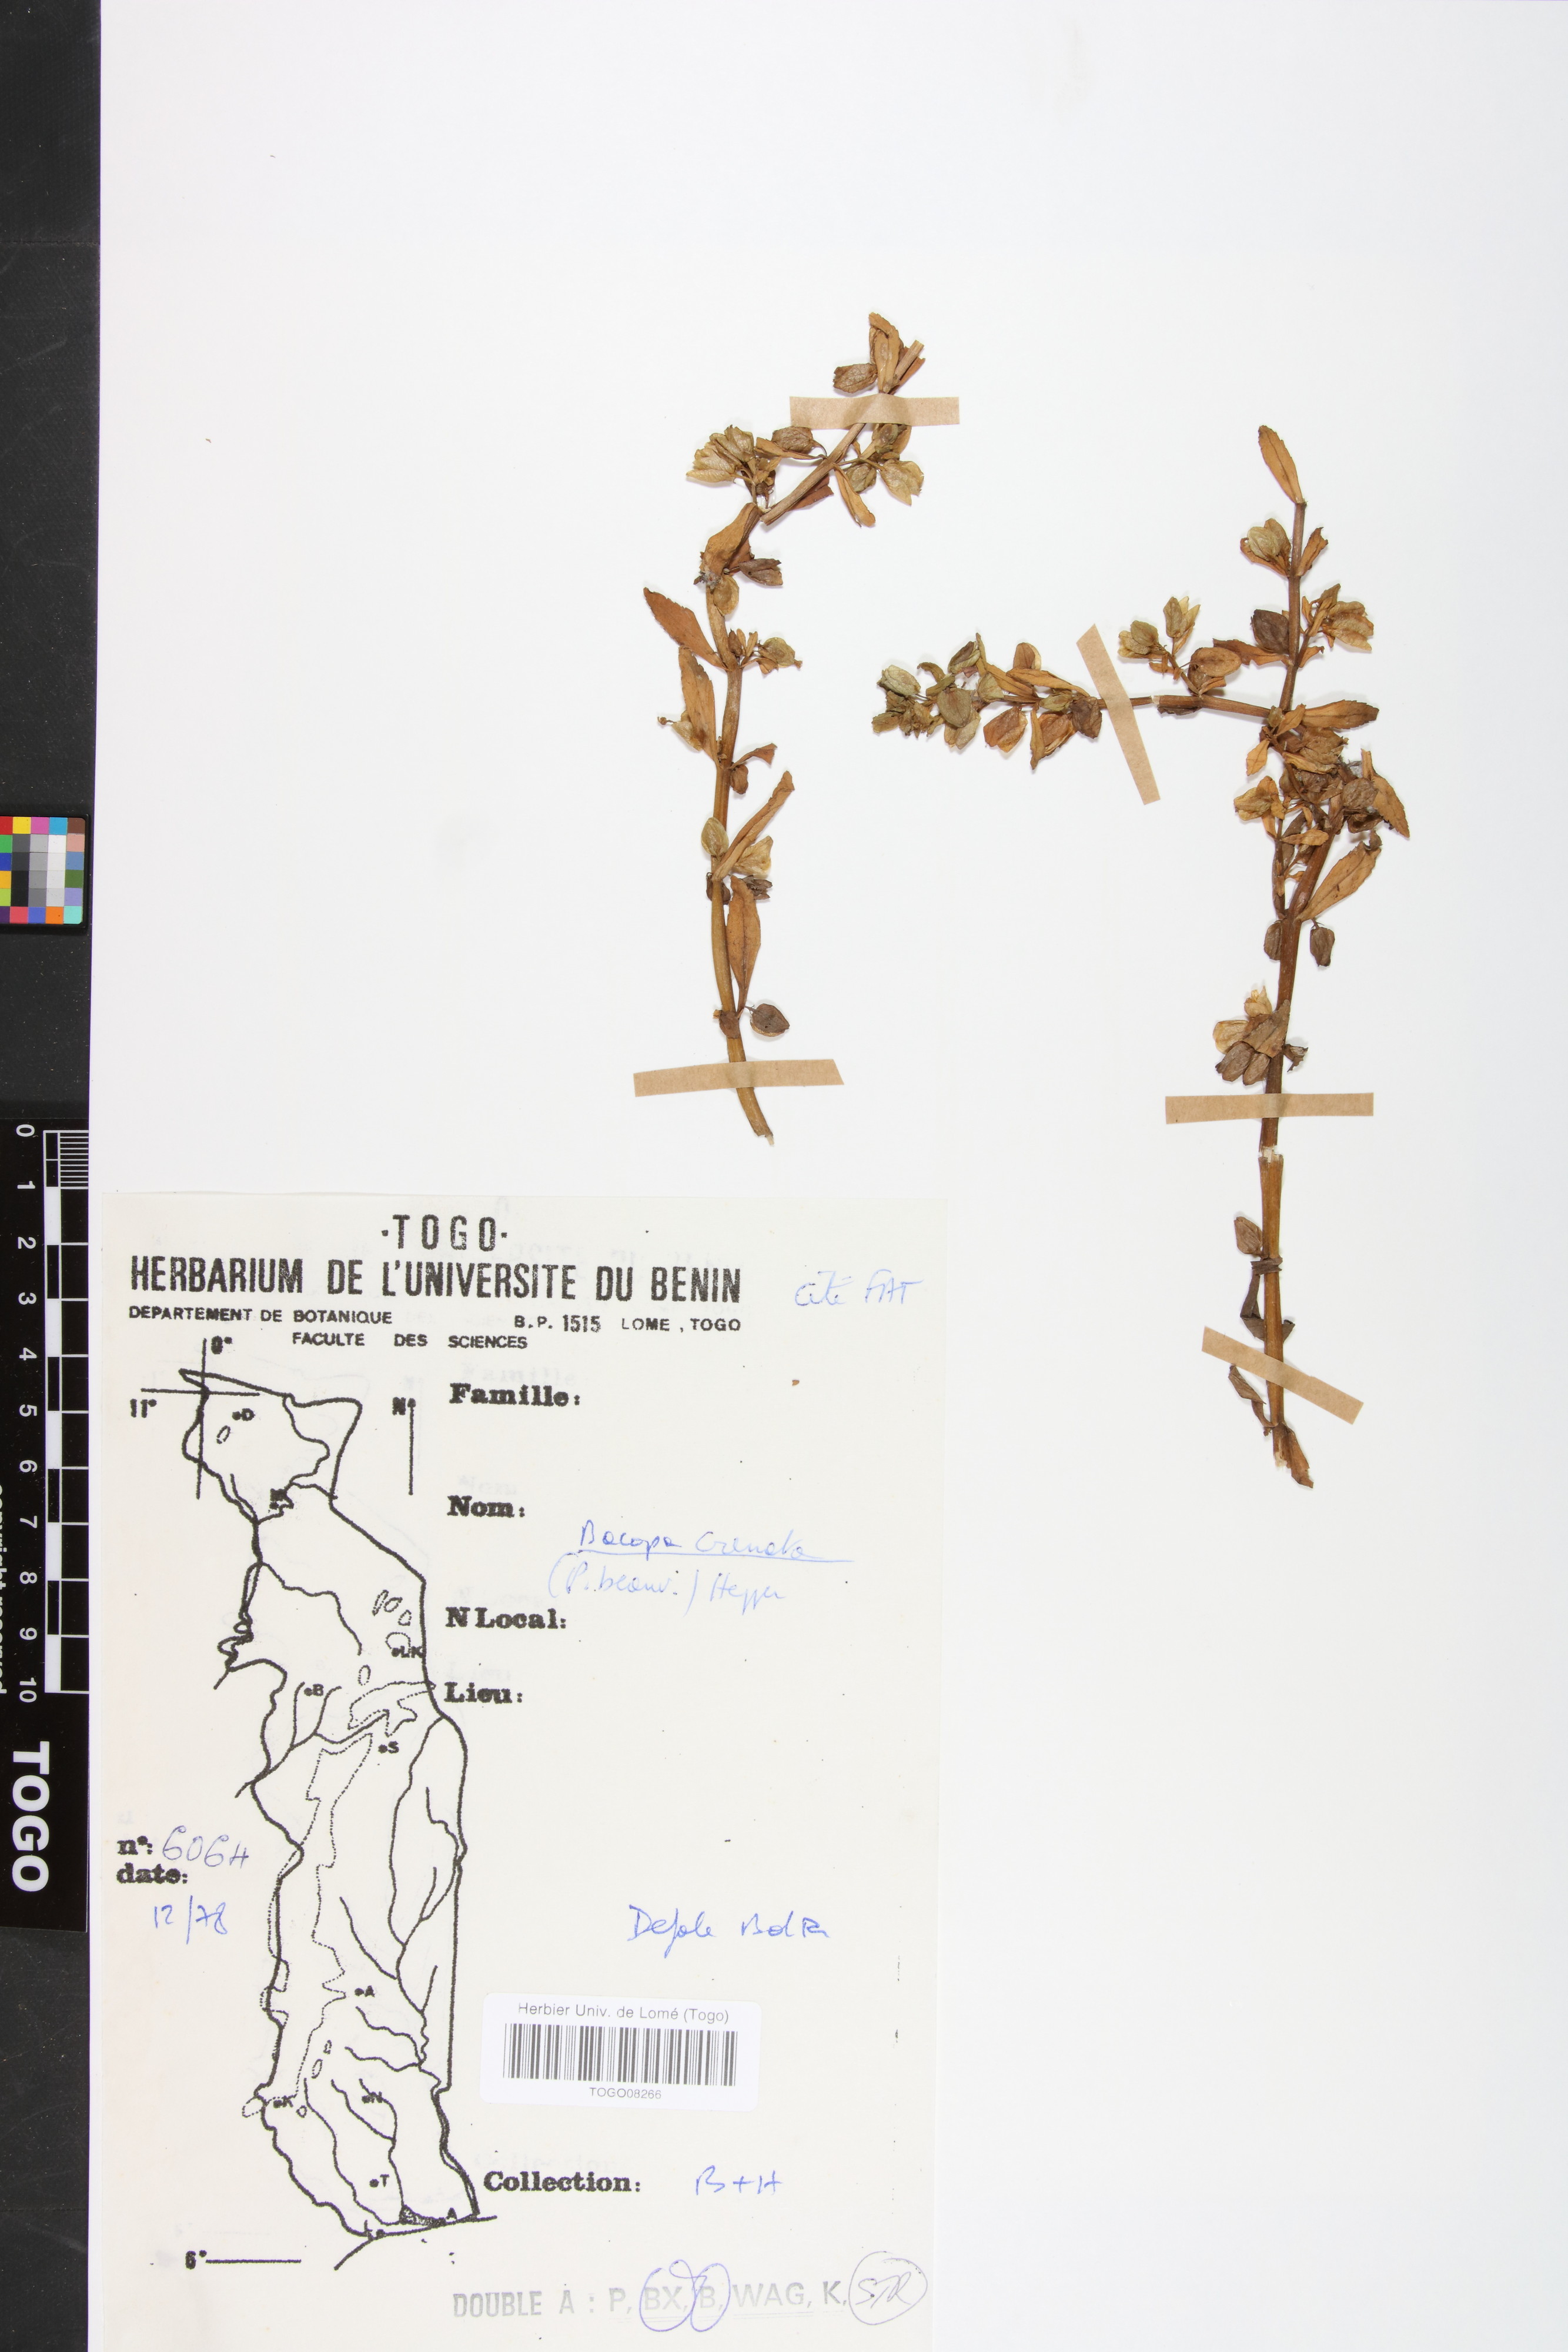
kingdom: Plantae
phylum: Tracheophyta
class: Magnoliopsida
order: Lamiales
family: Plantaginaceae
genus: Bacopa
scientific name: Bacopa crenata
